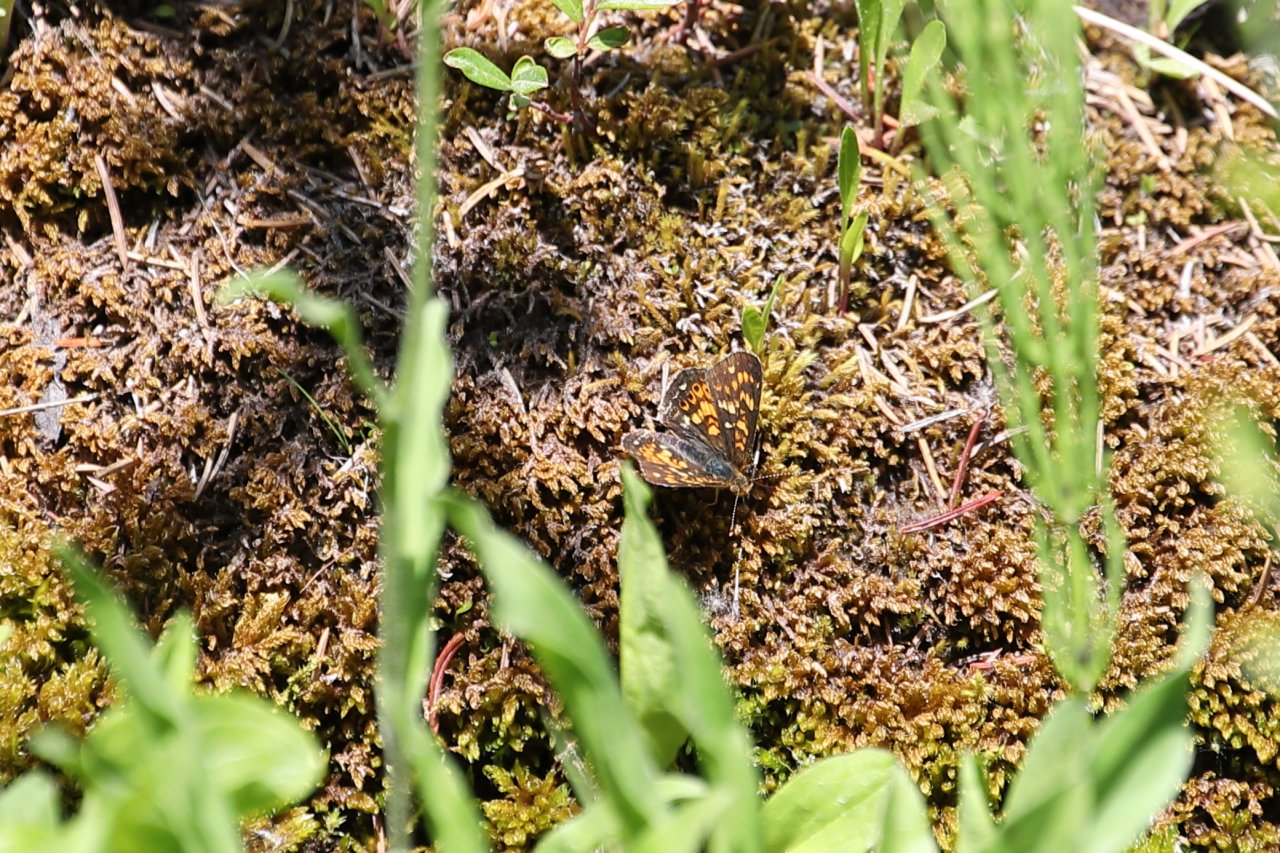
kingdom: Animalia
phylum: Arthropoda
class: Insecta
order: Lepidoptera
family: Nymphalidae
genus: Phyciodes
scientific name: Phyciodes tharos
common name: Field Crescent
